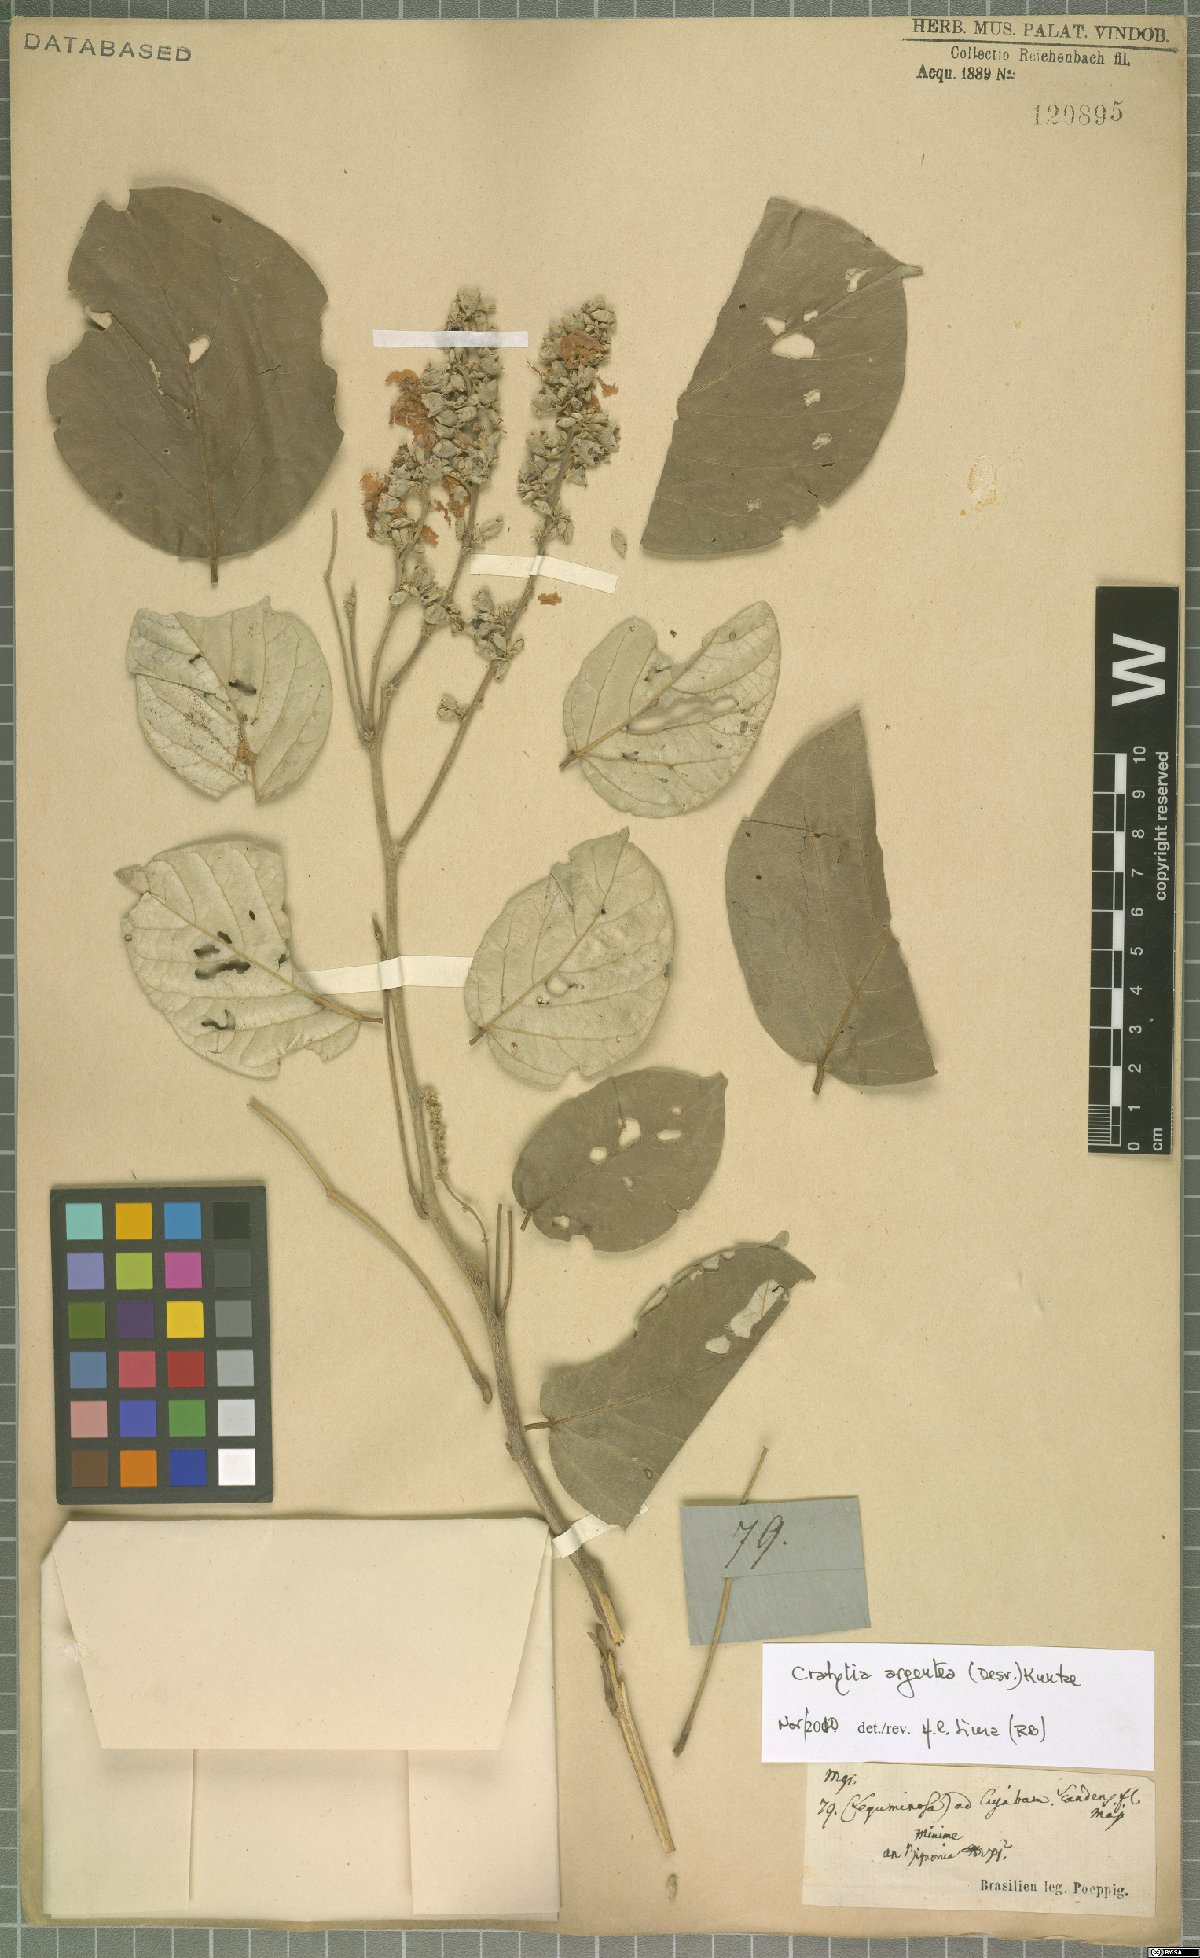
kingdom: Plantae
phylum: Tracheophyta
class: Magnoliopsida
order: Fabales
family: Fabaceae
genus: Cratylia
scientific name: Cratylia argentea
